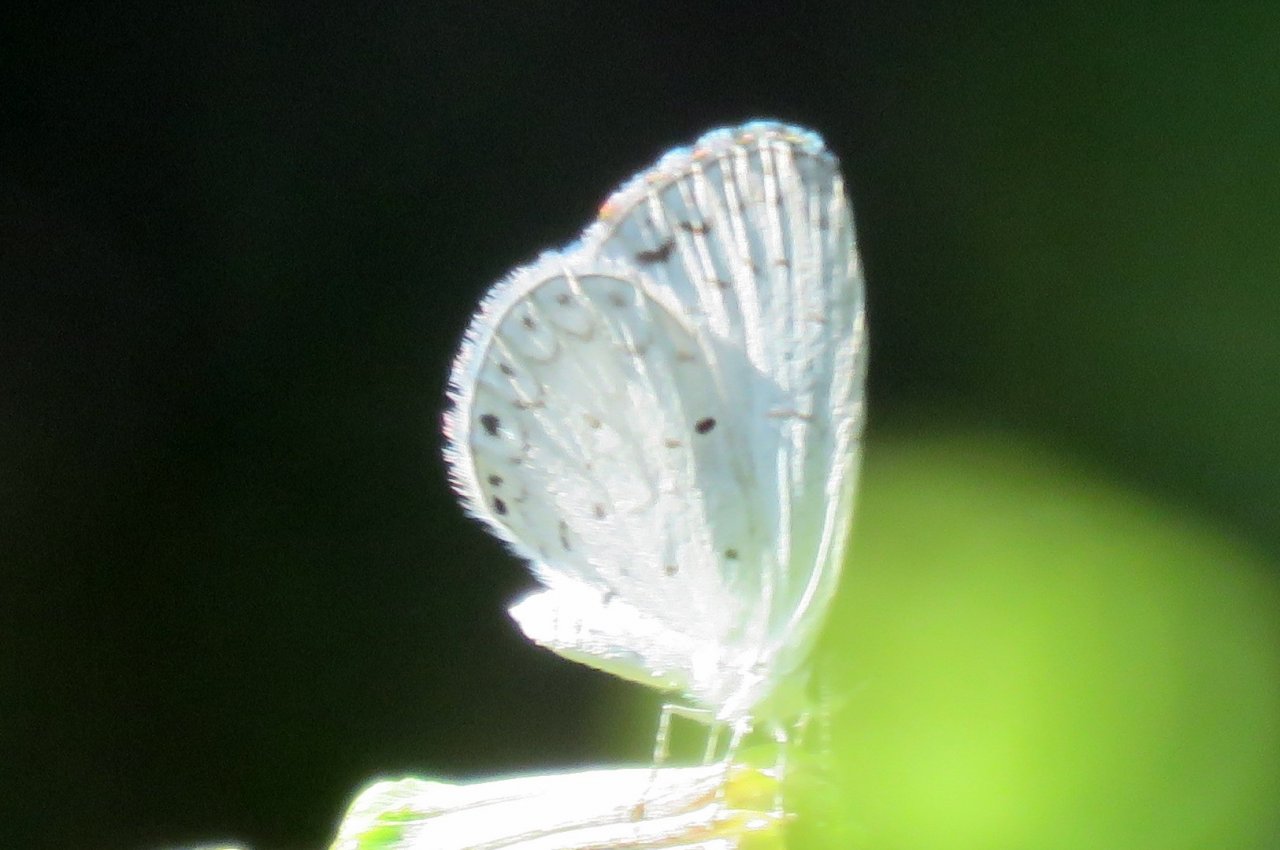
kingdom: Animalia
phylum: Arthropoda
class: Insecta
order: Lepidoptera
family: Lycaenidae
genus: Cyaniris
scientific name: Cyaniris neglecta
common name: Summer Azure
